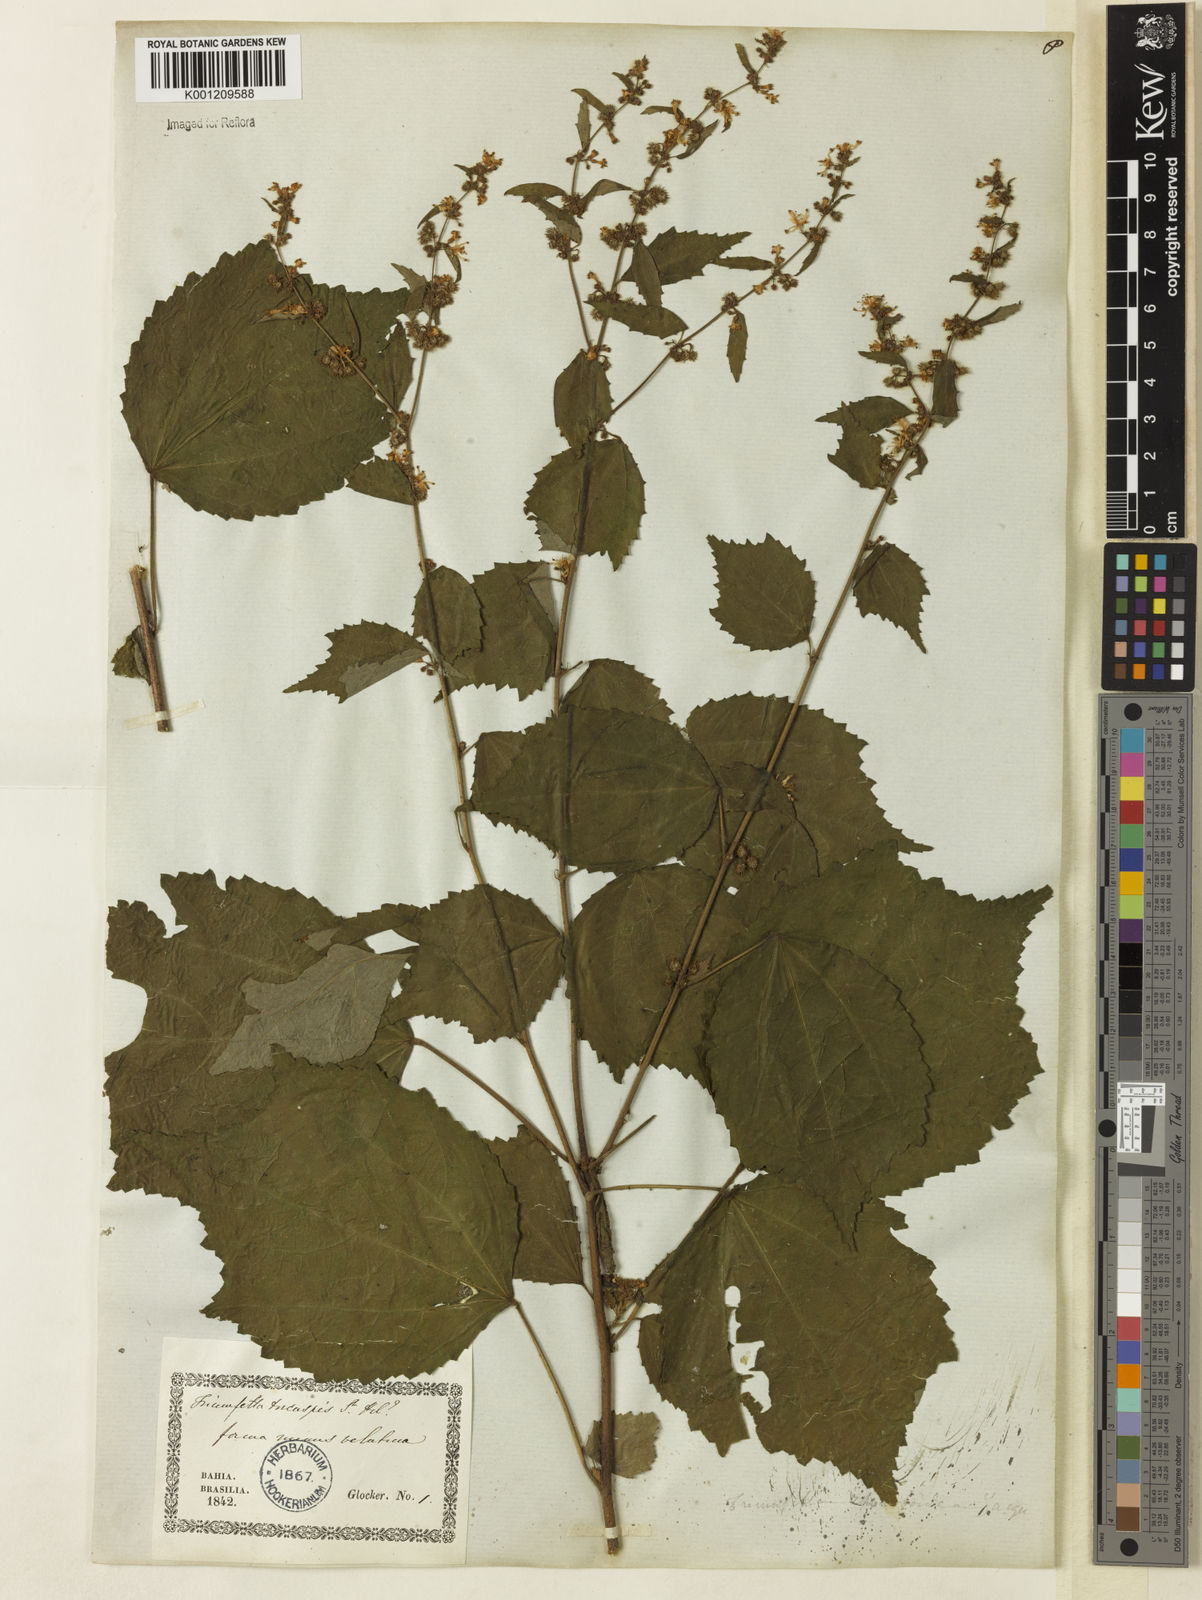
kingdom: Plantae
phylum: Tracheophyta
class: Magnoliopsida
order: Malvales
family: Malvaceae
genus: Triumfetta
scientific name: Triumfetta rhomboidea
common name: Diamond burbark
